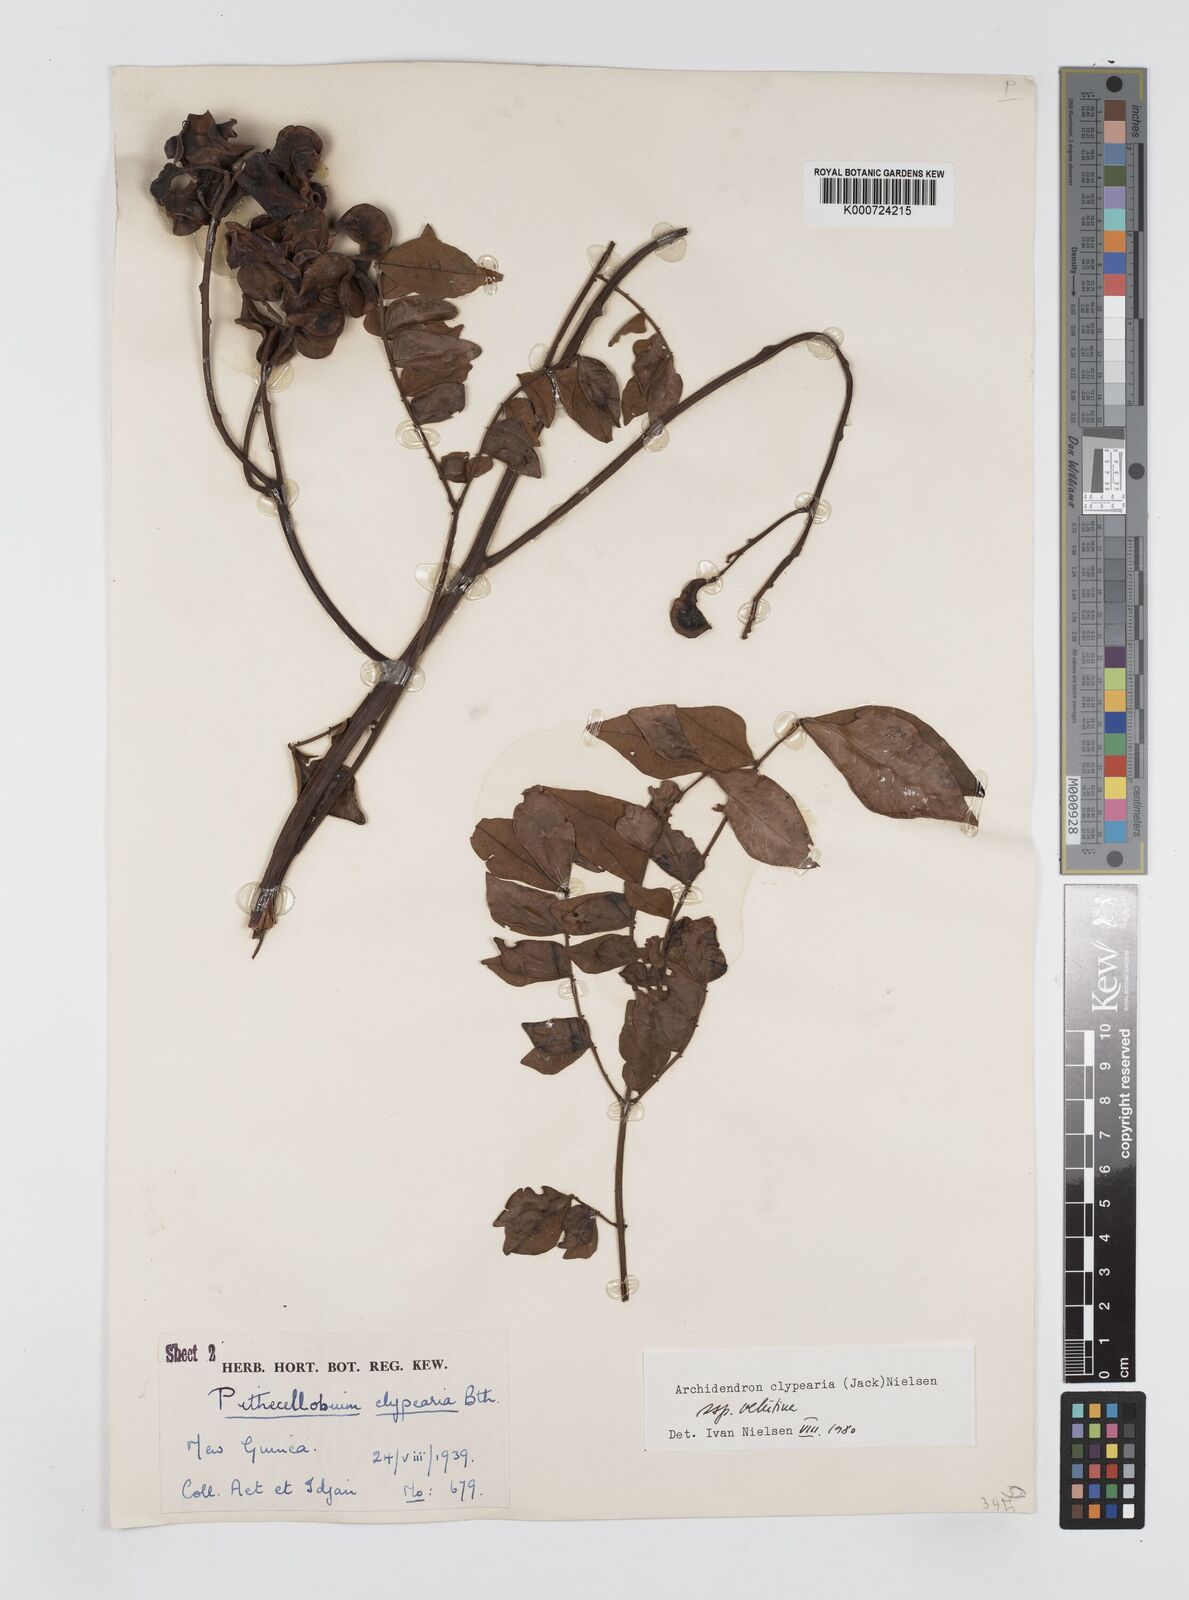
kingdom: Plantae
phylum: Tracheophyta
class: Magnoliopsida
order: Fabales
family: Fabaceae
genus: Archidendron
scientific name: Archidendron clypearia
